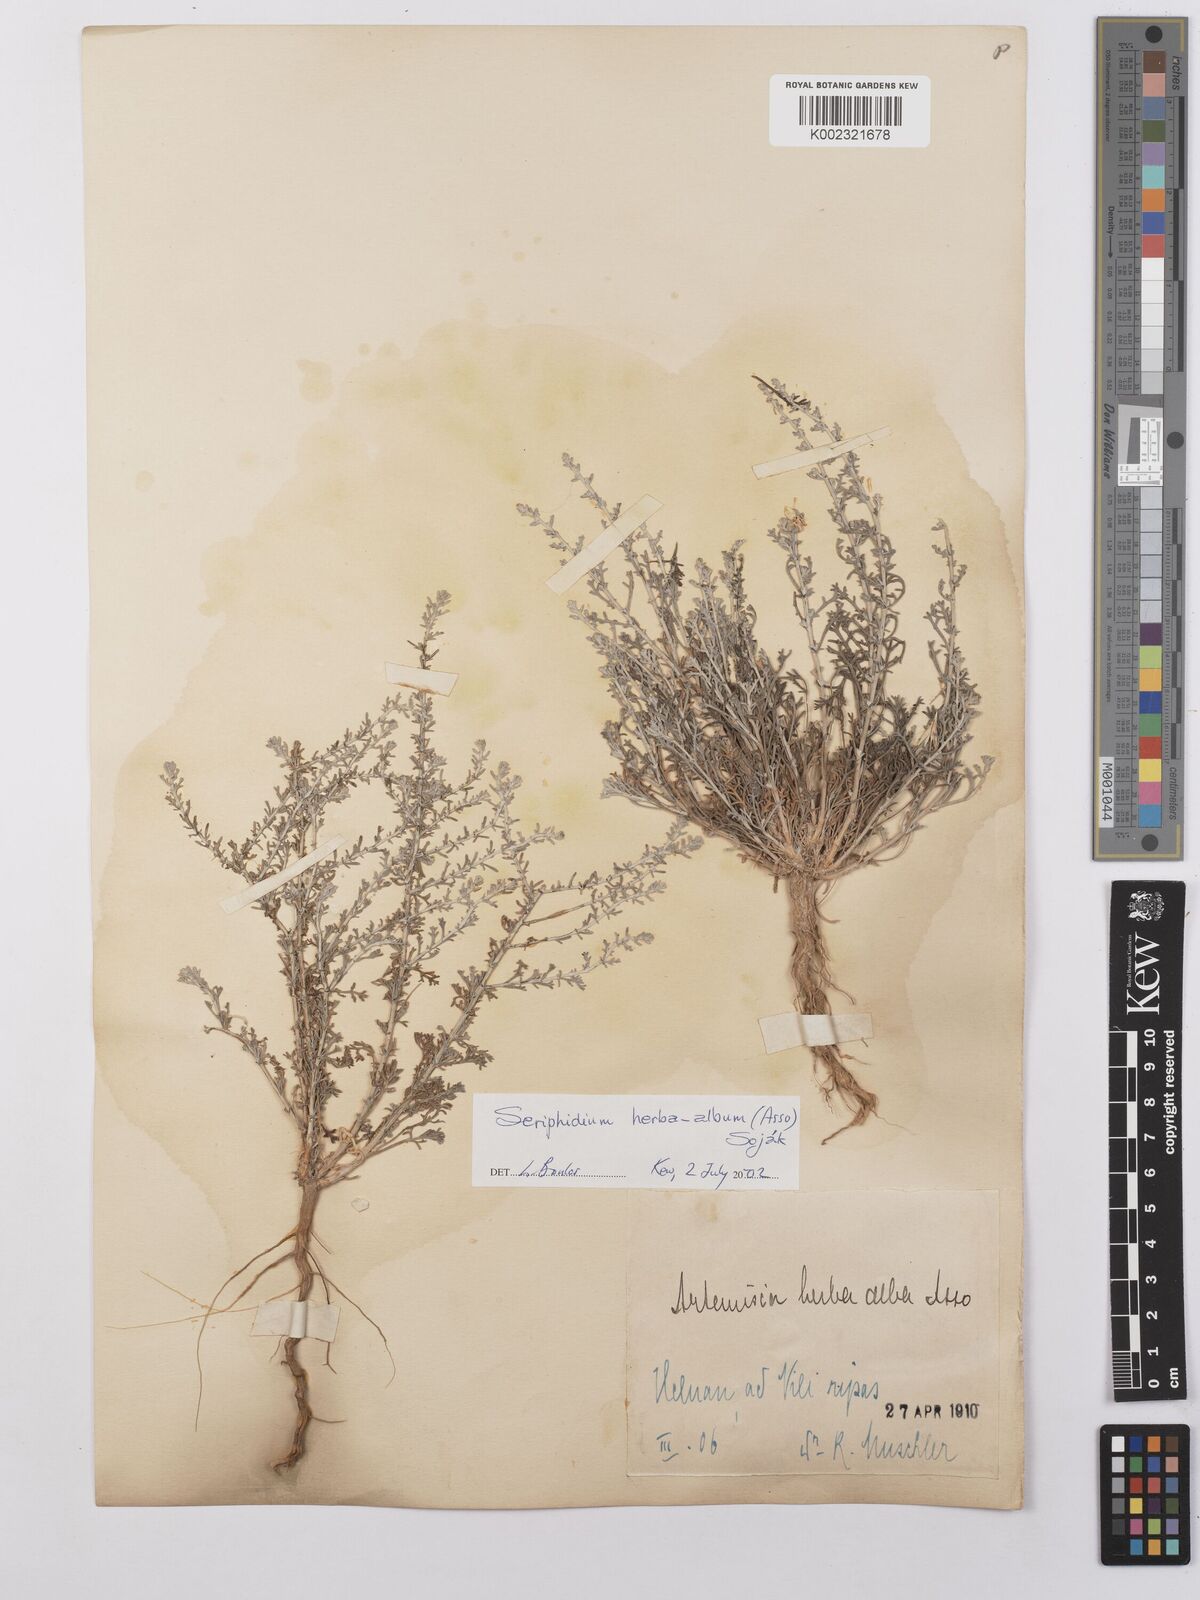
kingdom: Plantae
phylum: Tracheophyta
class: Magnoliopsida
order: Asterales
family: Asteraceae
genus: Artemisia
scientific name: Artemisia herba-alba
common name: White wormwood
